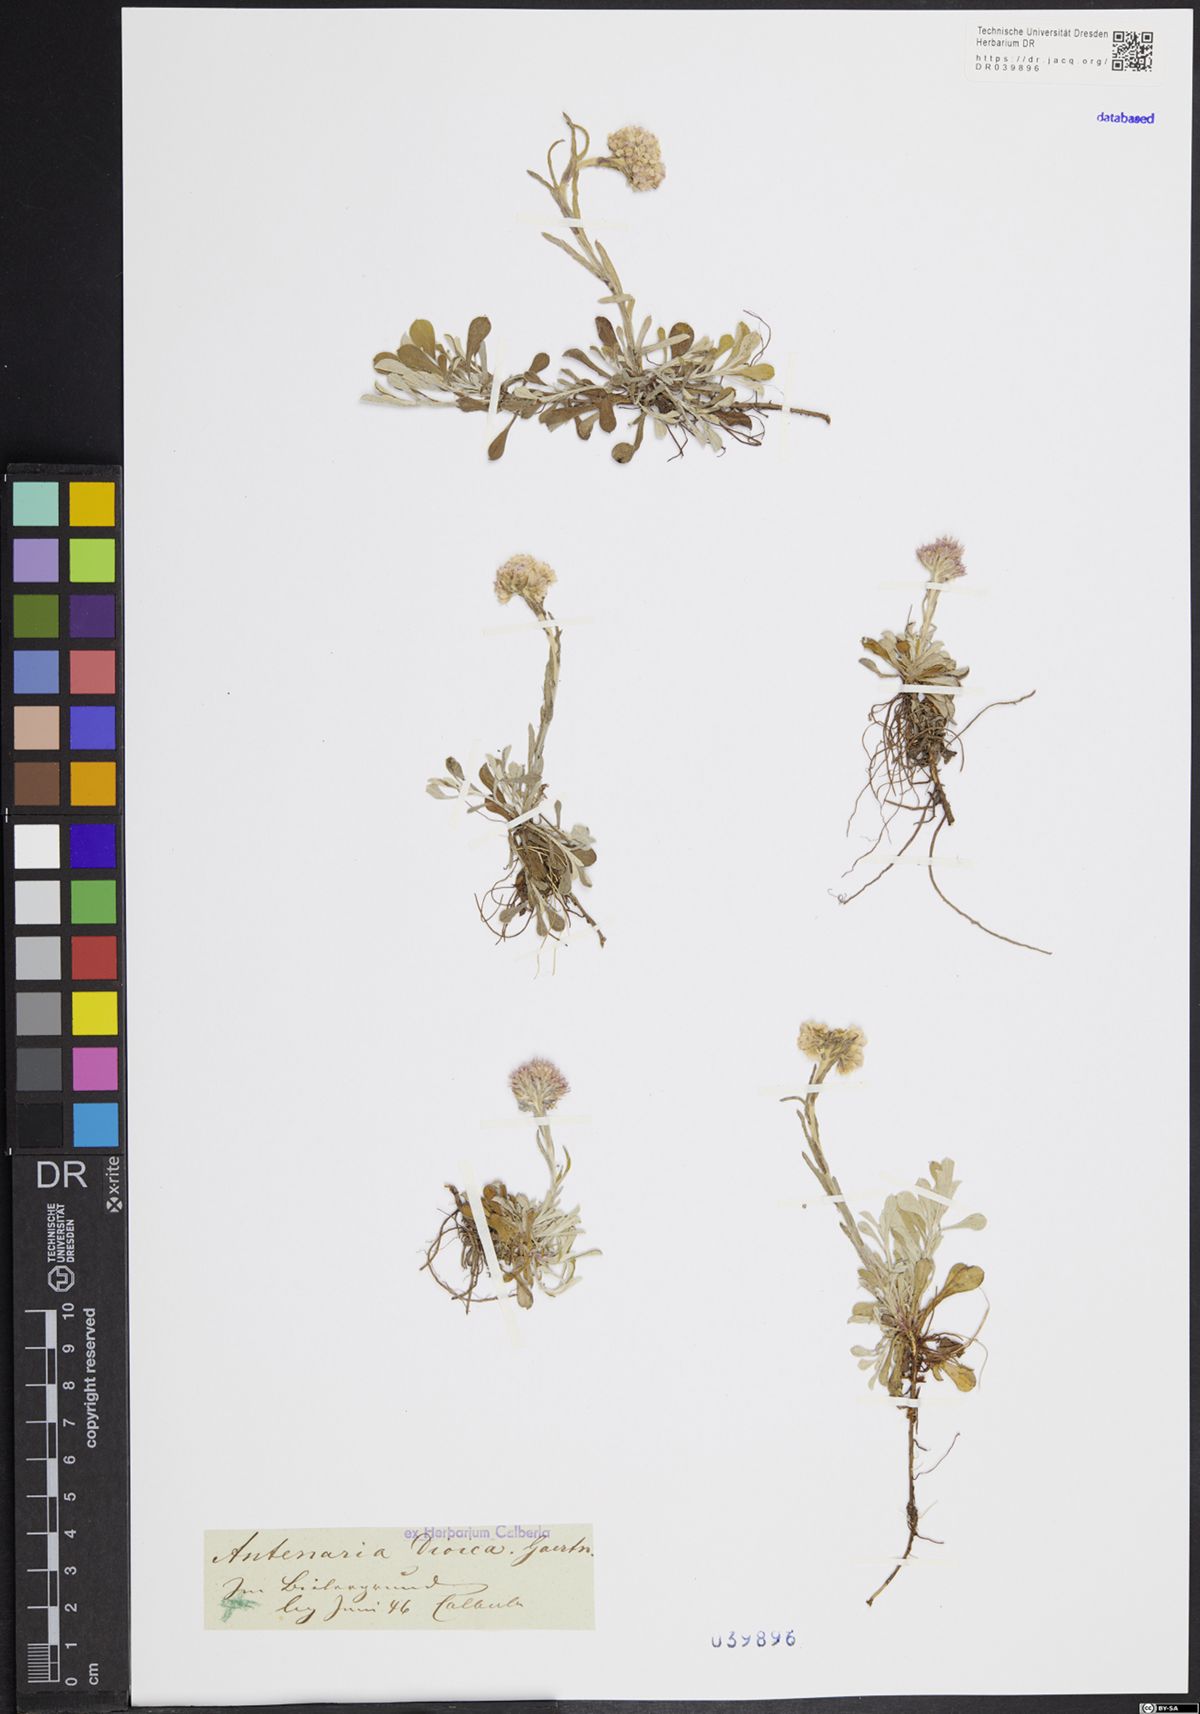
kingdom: Plantae
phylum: Tracheophyta
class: Magnoliopsida
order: Asterales
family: Asteraceae
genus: Antennaria
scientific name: Antennaria dioica
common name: Mountain everlasting
